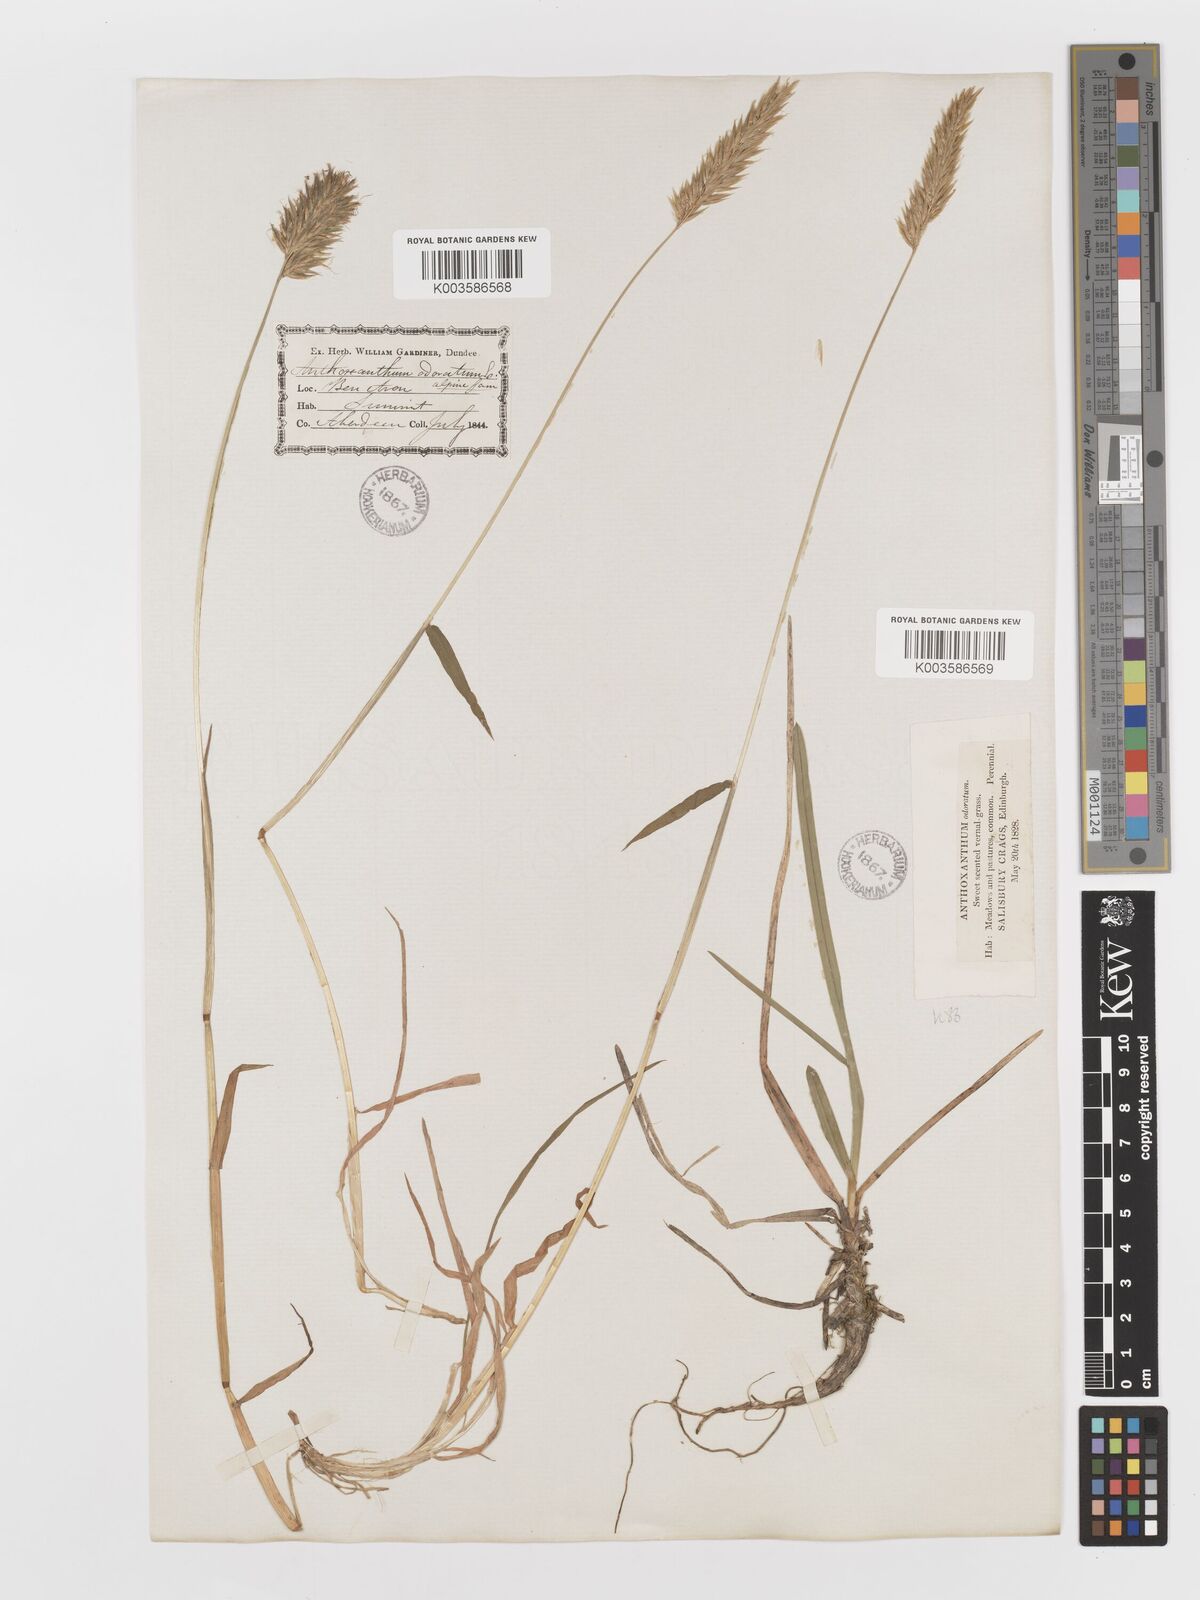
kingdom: Plantae
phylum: Tracheophyta
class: Liliopsida
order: Poales
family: Poaceae
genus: Anthoxanthum
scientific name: Anthoxanthum odoratum
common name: Sweet vernalgrass
